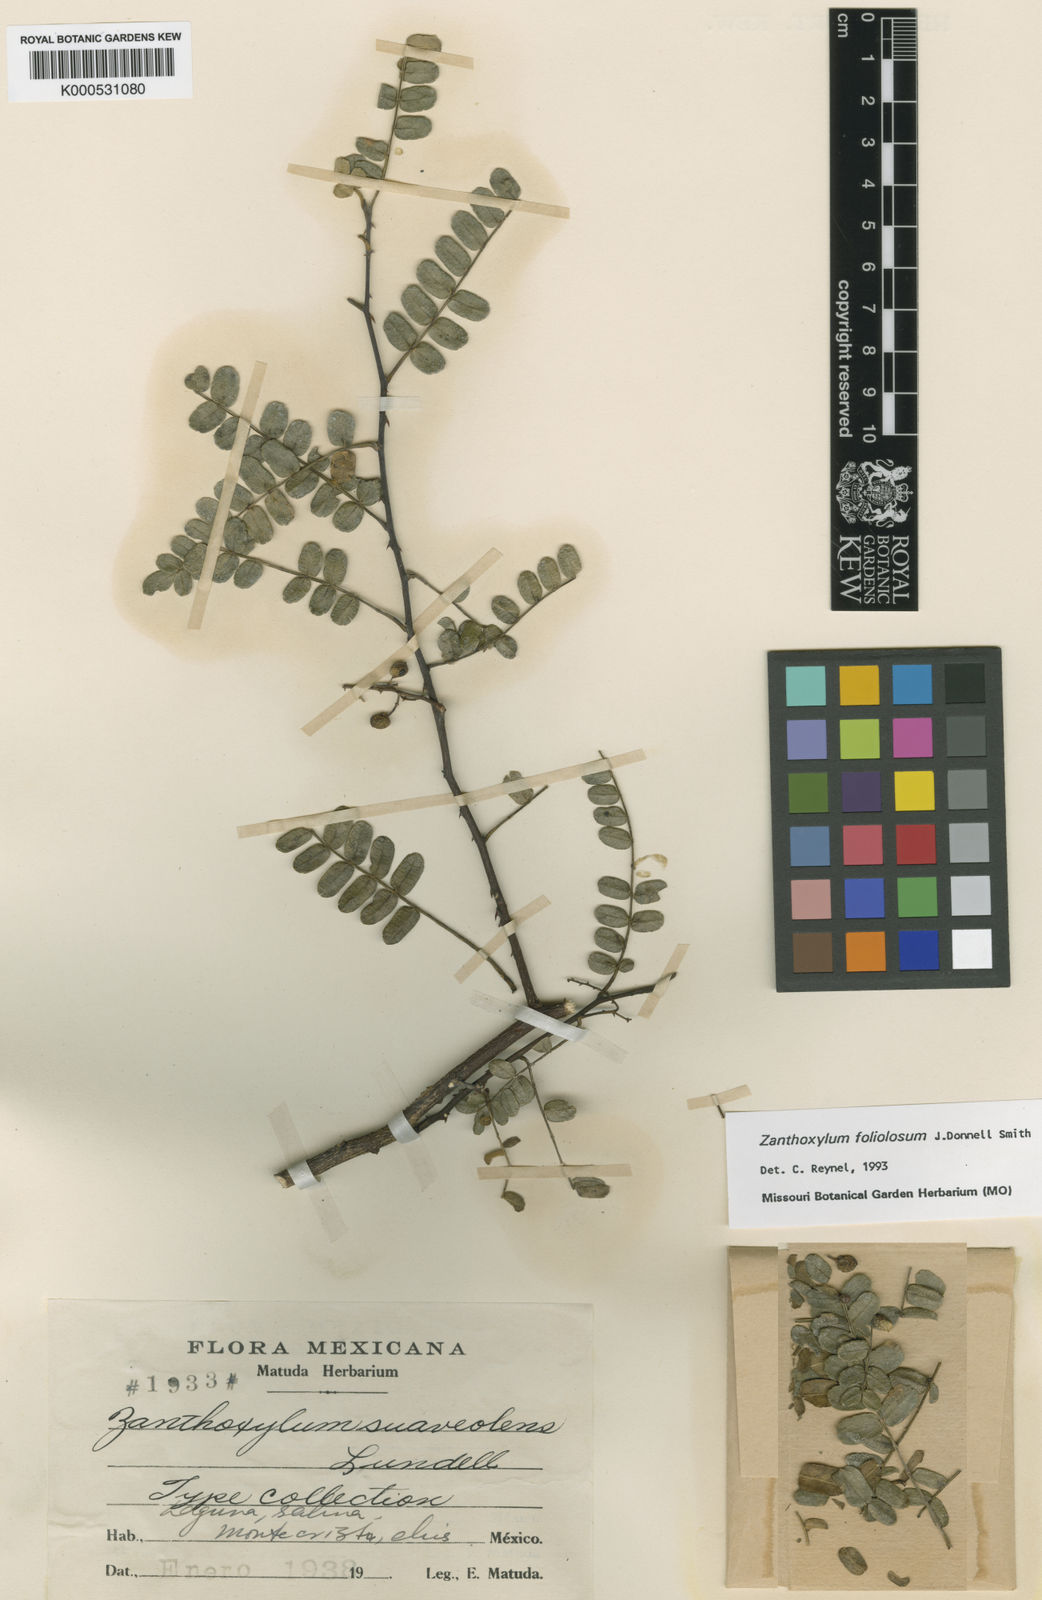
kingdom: Plantae
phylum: Tracheophyta
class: Magnoliopsida
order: Sapindales
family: Rutaceae
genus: Zanthoxylum
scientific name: Zanthoxylum foliolosum
